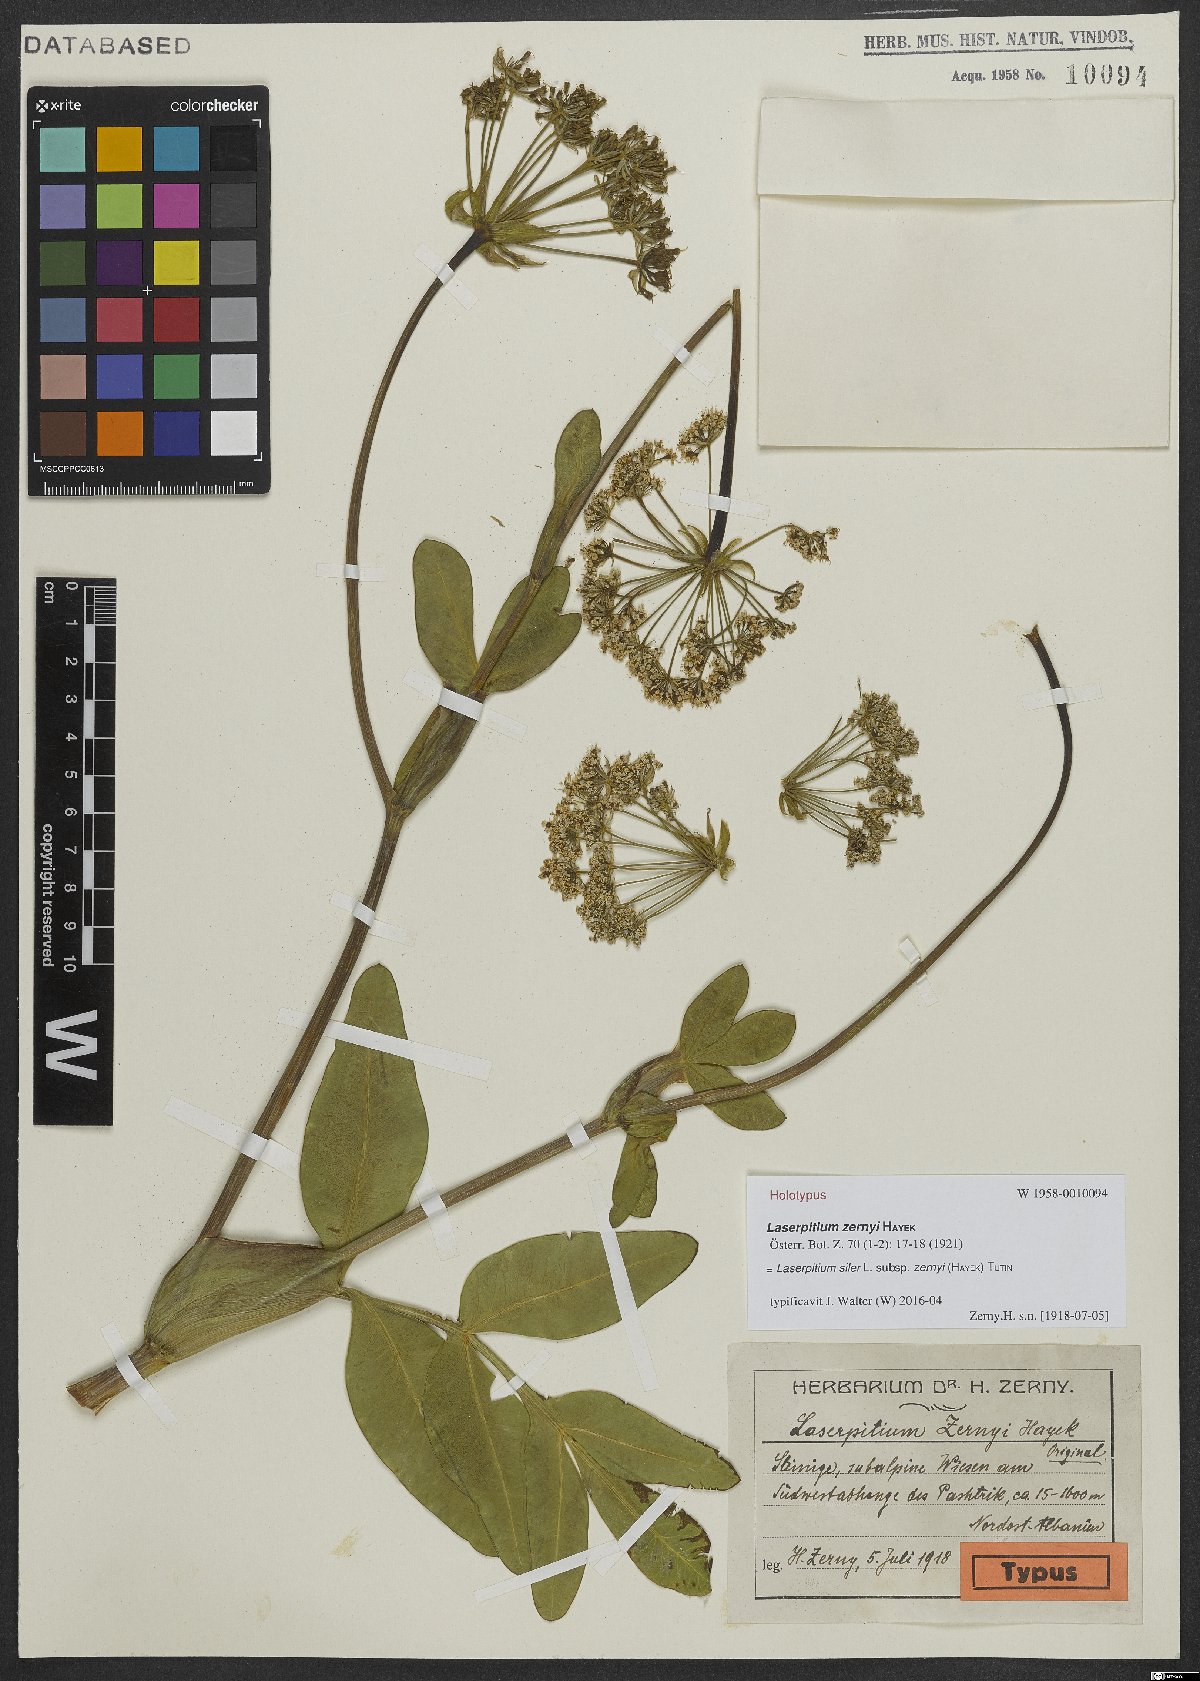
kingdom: Plantae
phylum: Tracheophyta
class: Magnoliopsida
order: Apiales
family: Apiaceae
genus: Siler
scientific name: Siler zernyi
